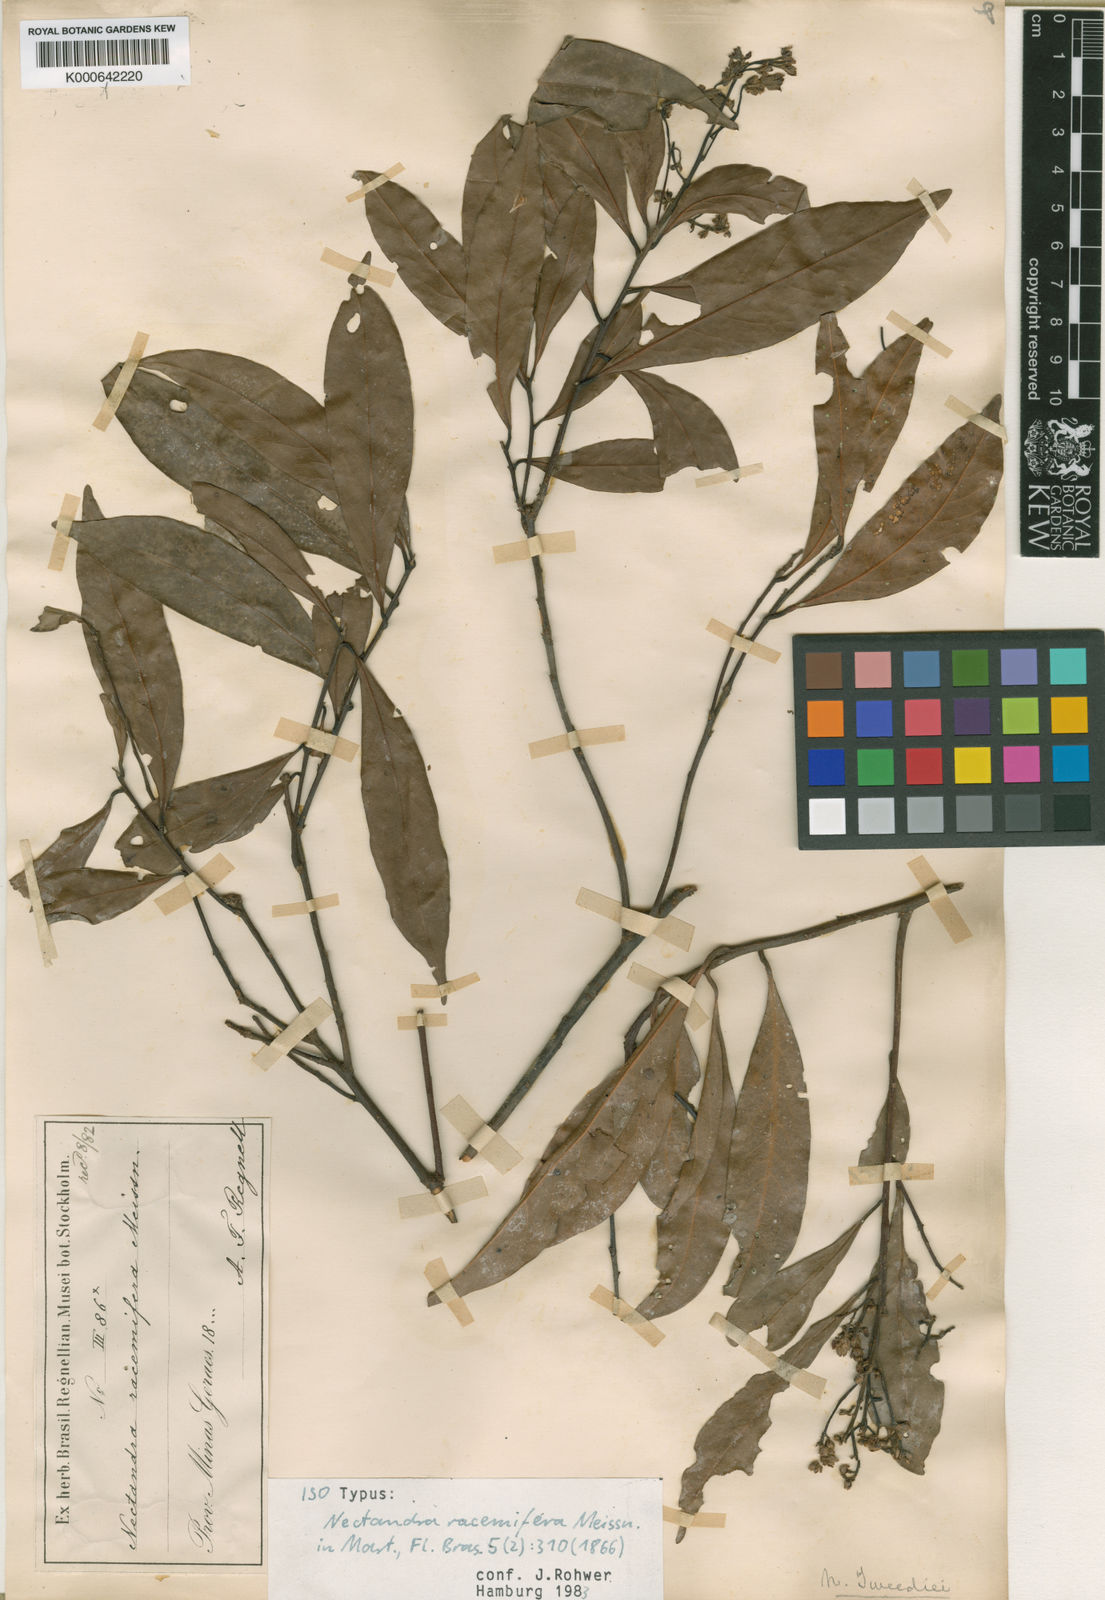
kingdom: Plantae
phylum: Tracheophyta
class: Magnoliopsida
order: Laurales
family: Lauraceae
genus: Nectandra
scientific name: Nectandra megapotamica
